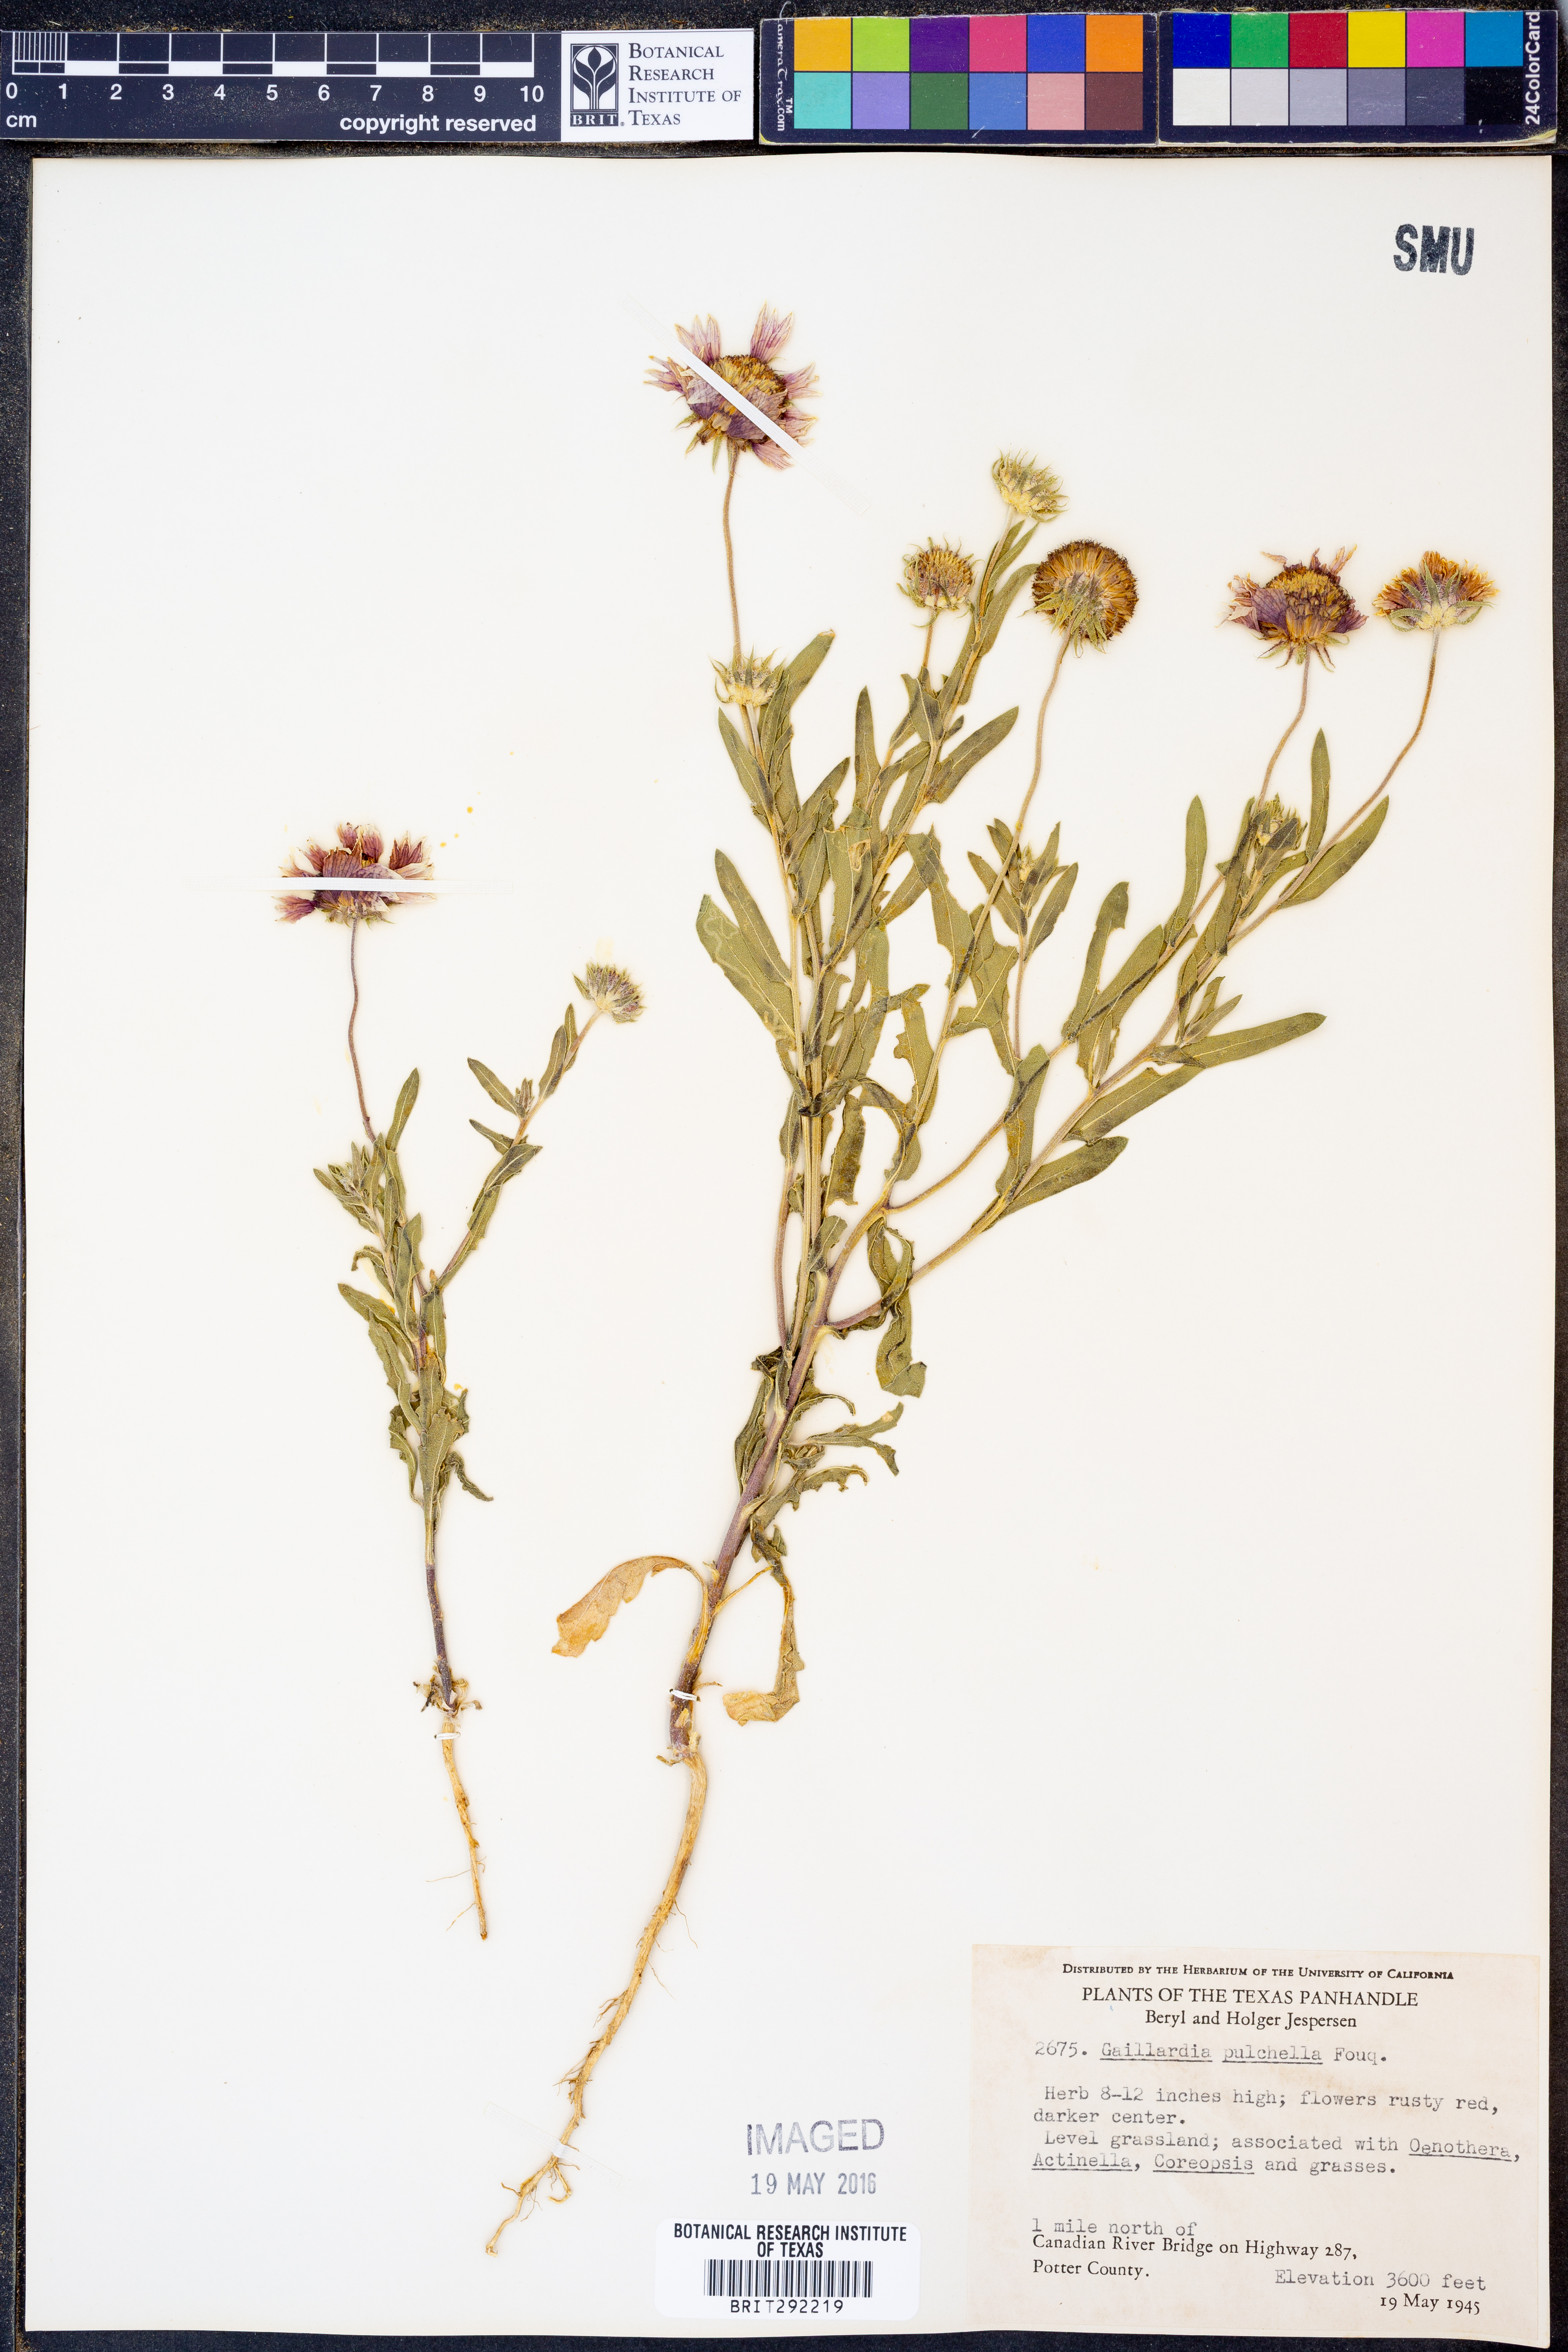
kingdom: Plantae
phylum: Tracheophyta
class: Magnoliopsida
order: Asterales
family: Asteraceae
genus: Gaillardia
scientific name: Gaillardia pulchella
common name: Firewheel
